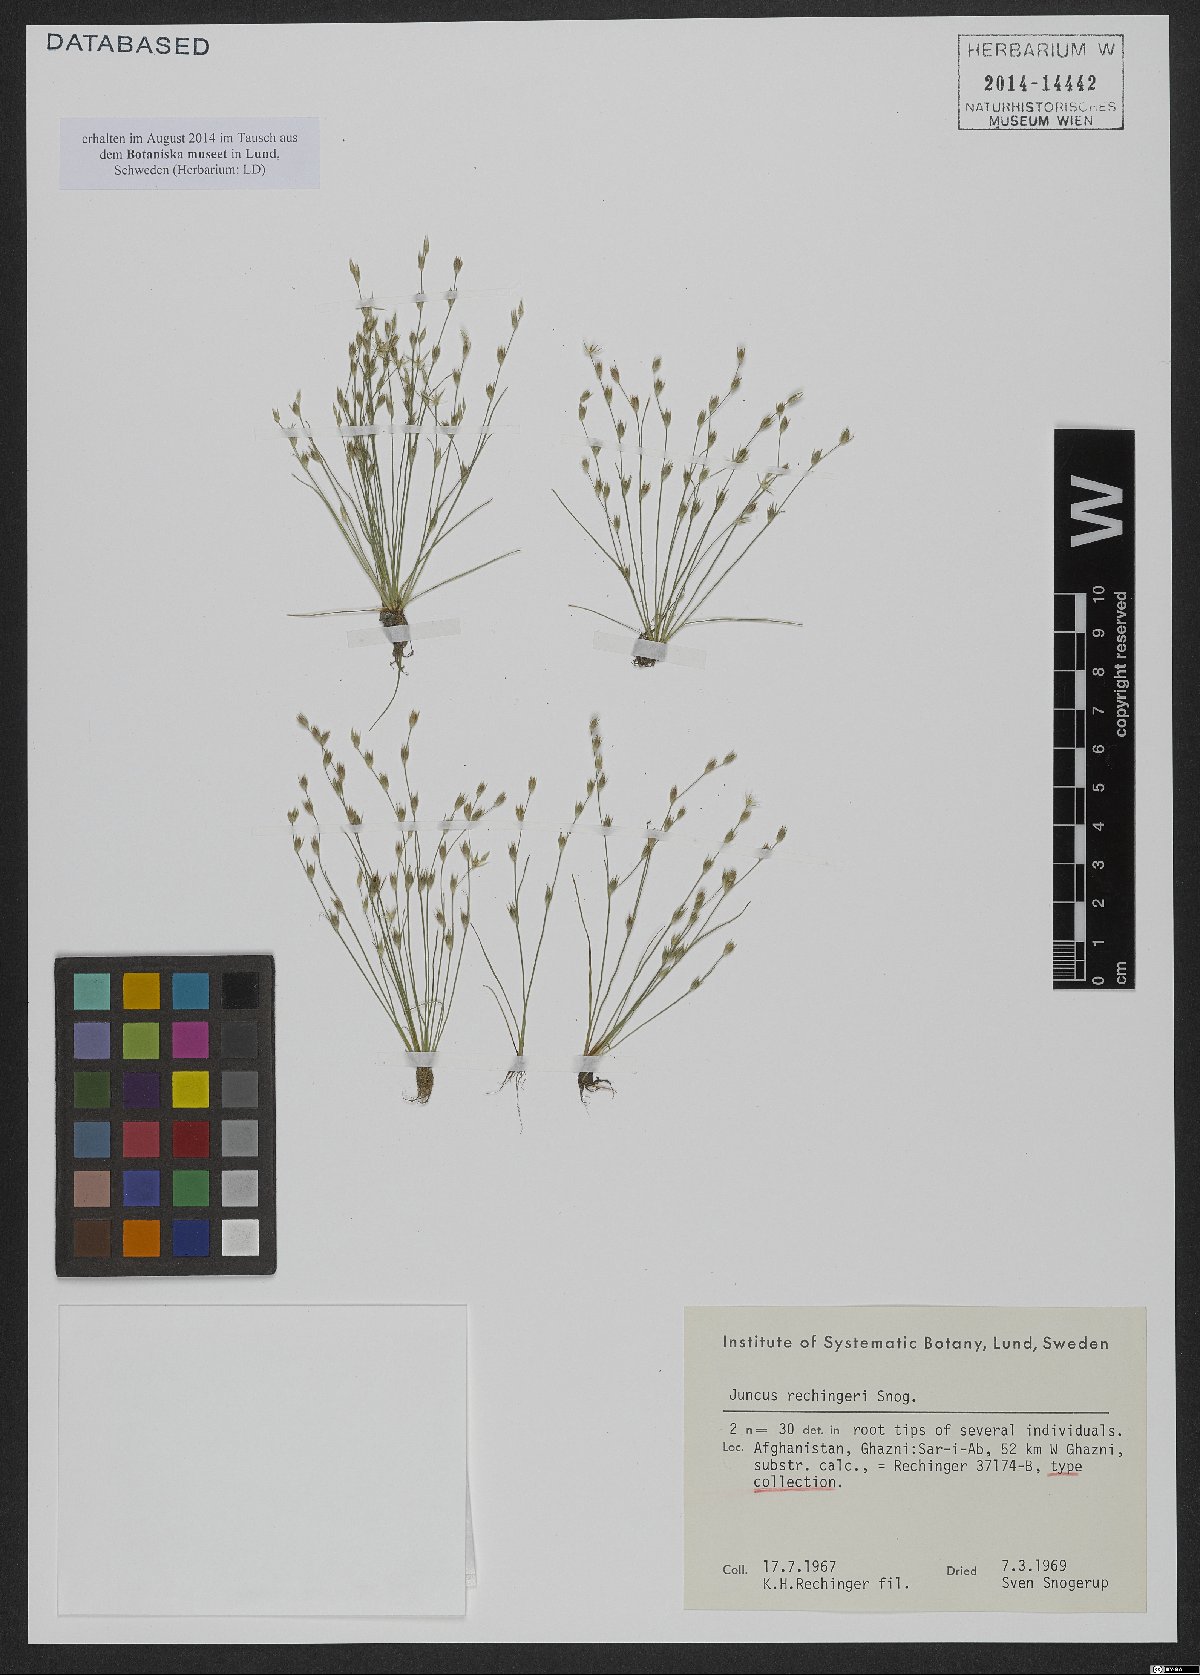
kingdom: Plantae
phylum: Tracheophyta
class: Liliopsida
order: Poales
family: Juncaceae
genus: Juncus
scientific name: Juncus rechingeri
